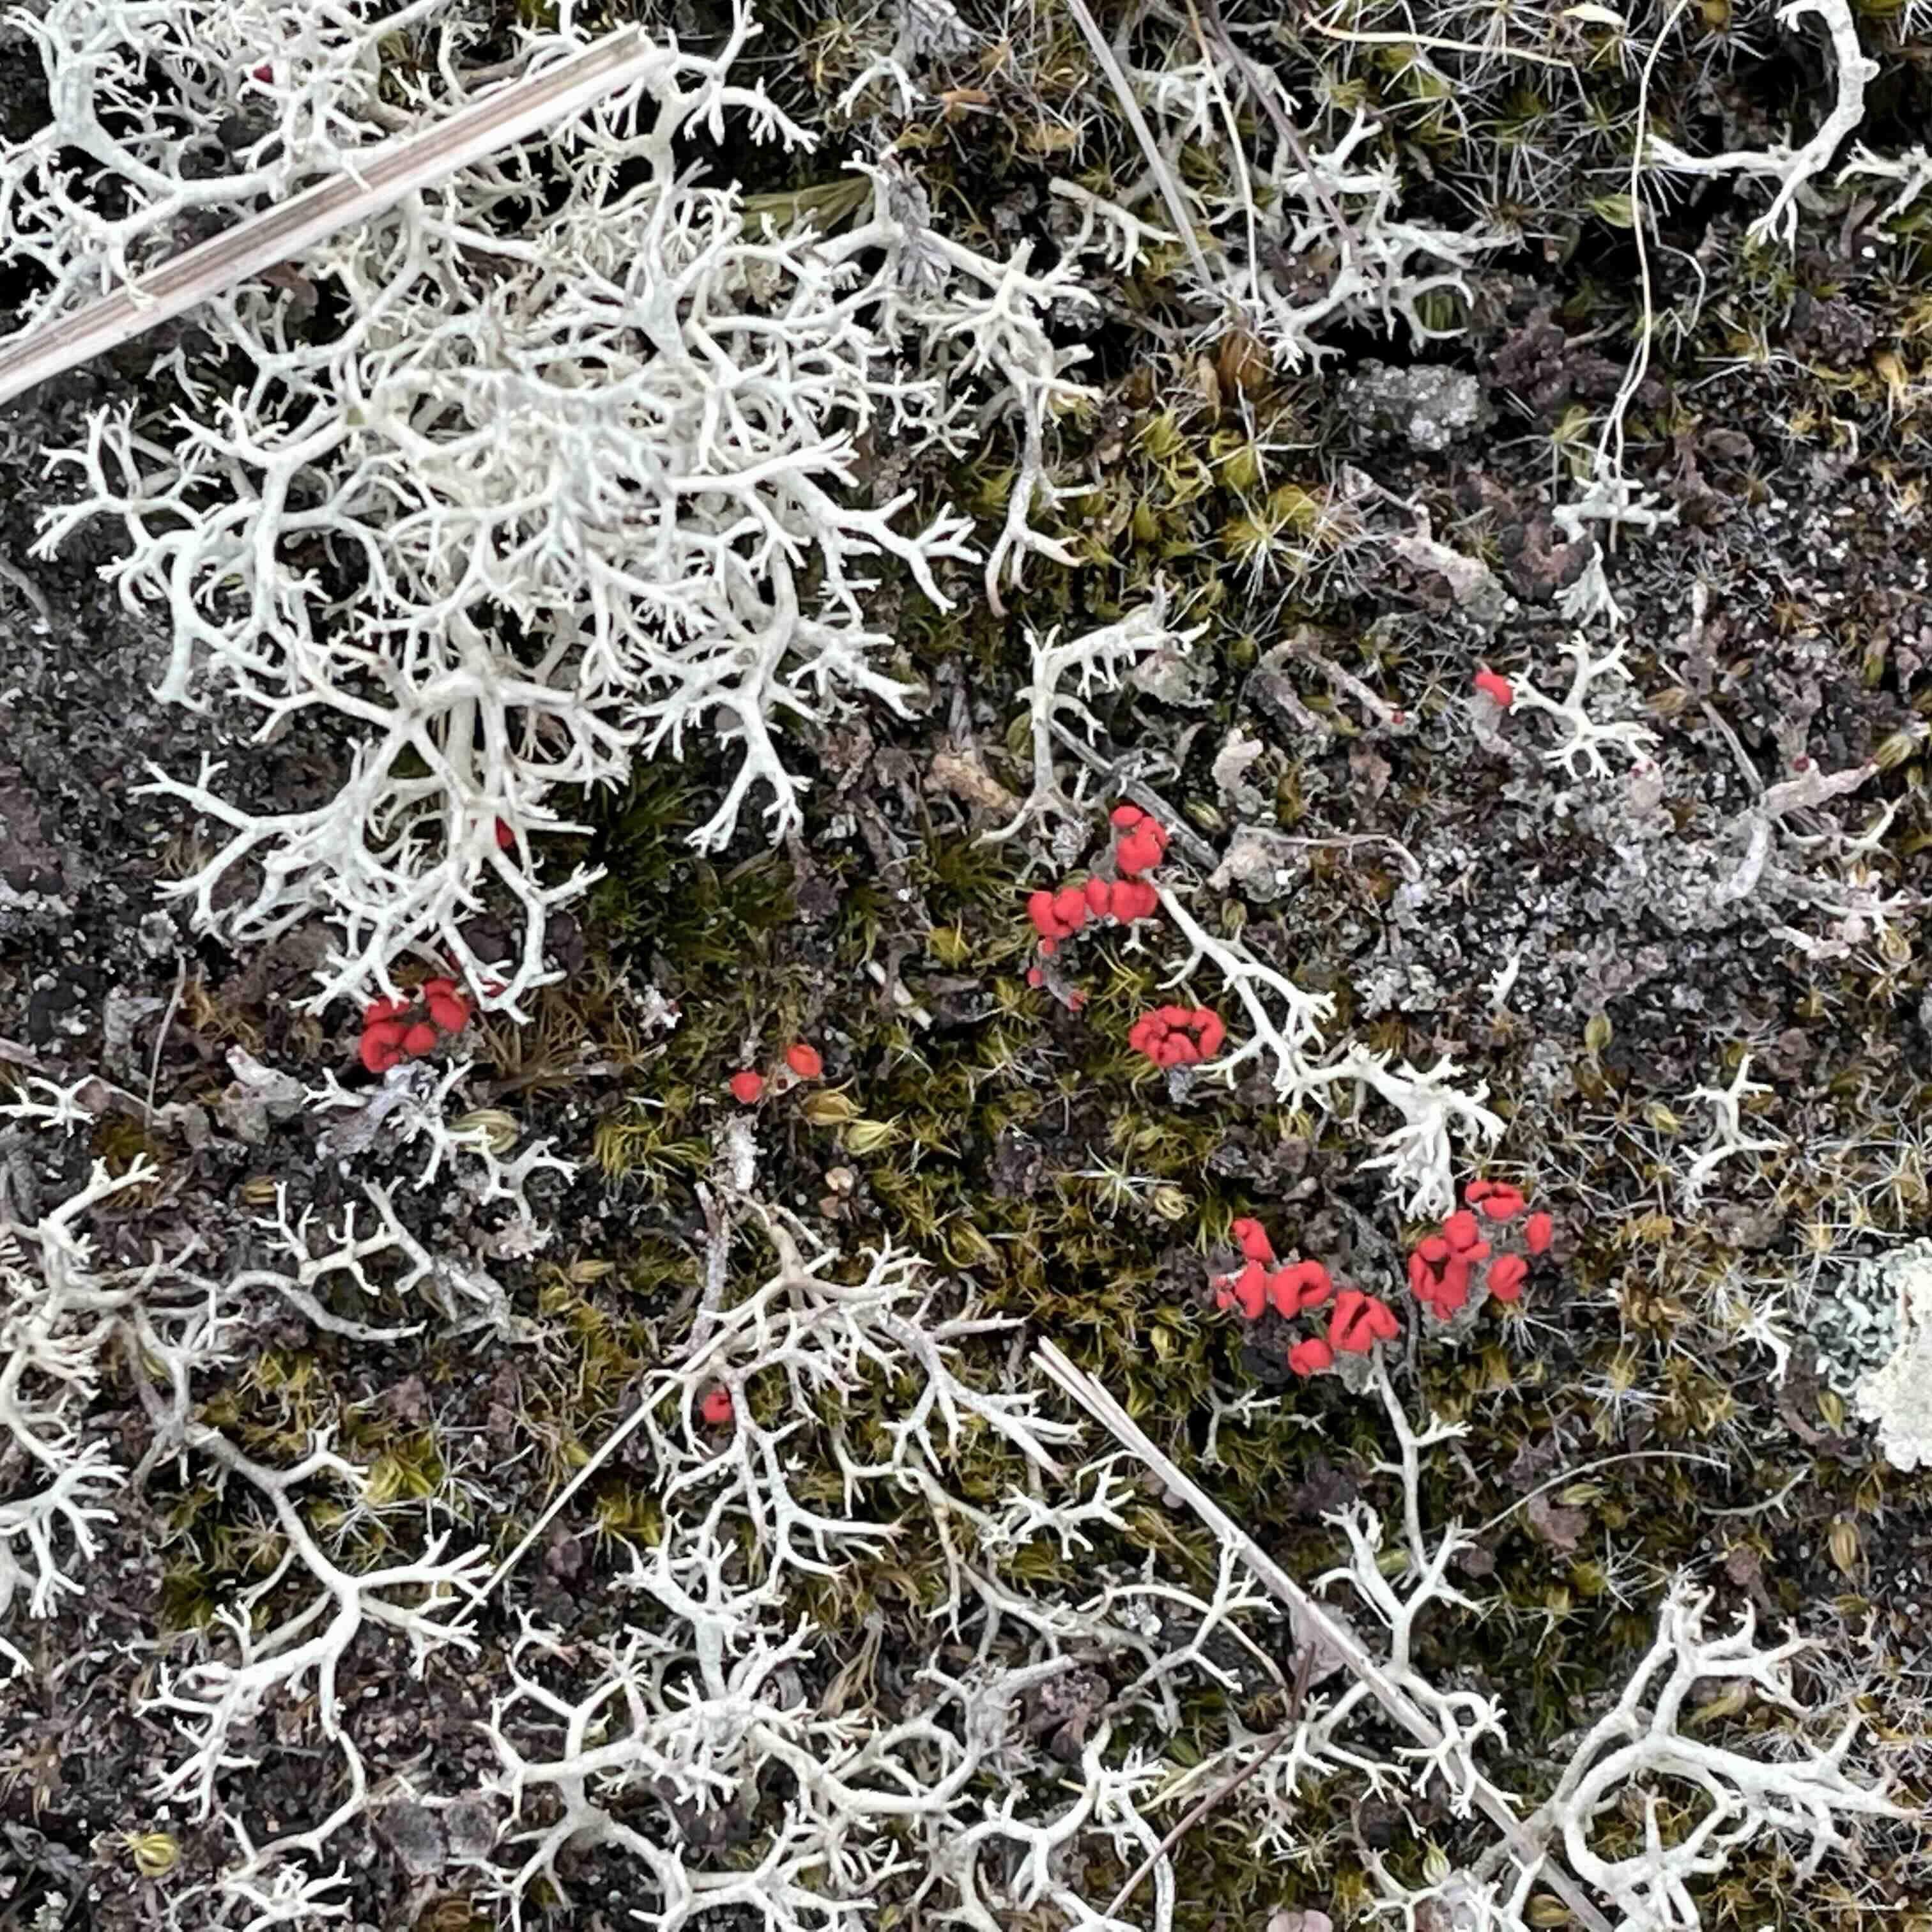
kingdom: Fungi
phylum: Ascomycota
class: Lecanoromycetes
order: Lecanorales
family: Cladoniaceae
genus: Cladonia
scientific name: Cladonia floerkeana
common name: lakrød bægerlav
